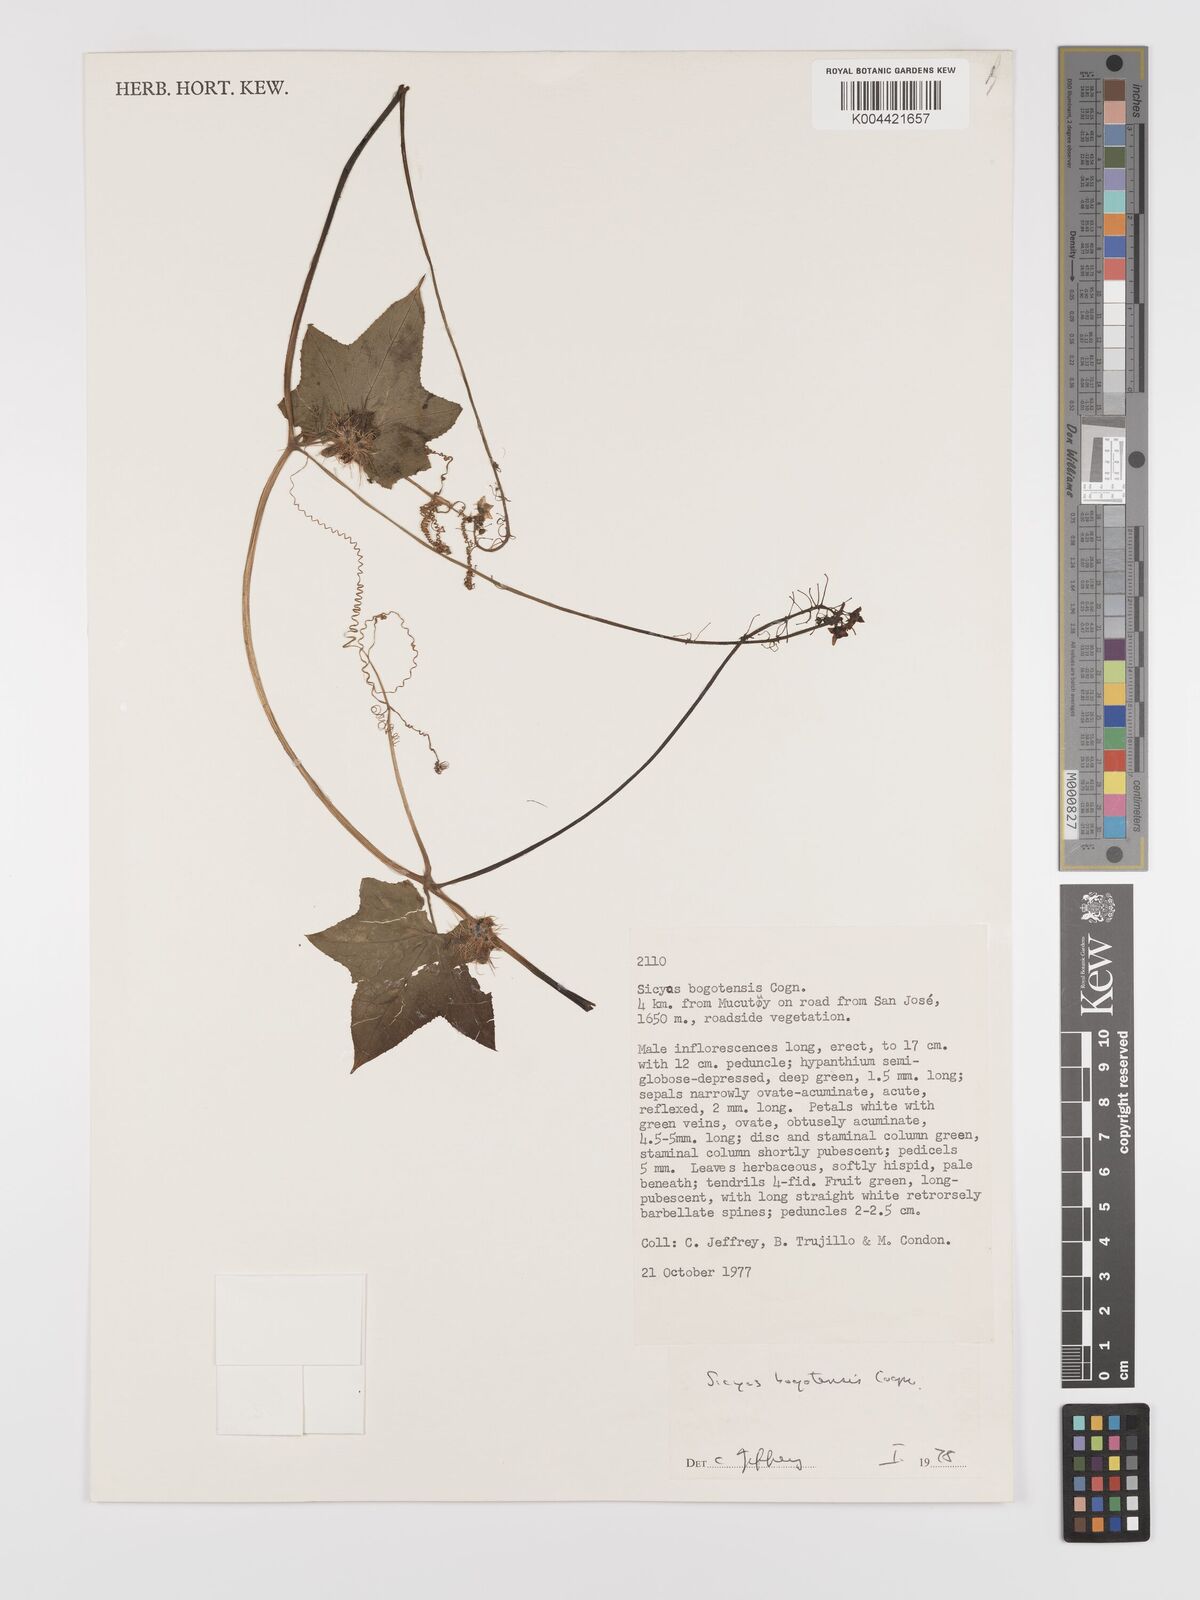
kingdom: Plantae
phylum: Tracheophyta
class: Magnoliopsida
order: Cucurbitales
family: Cucurbitaceae
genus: Sicyos
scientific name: Sicyos bogotensis
